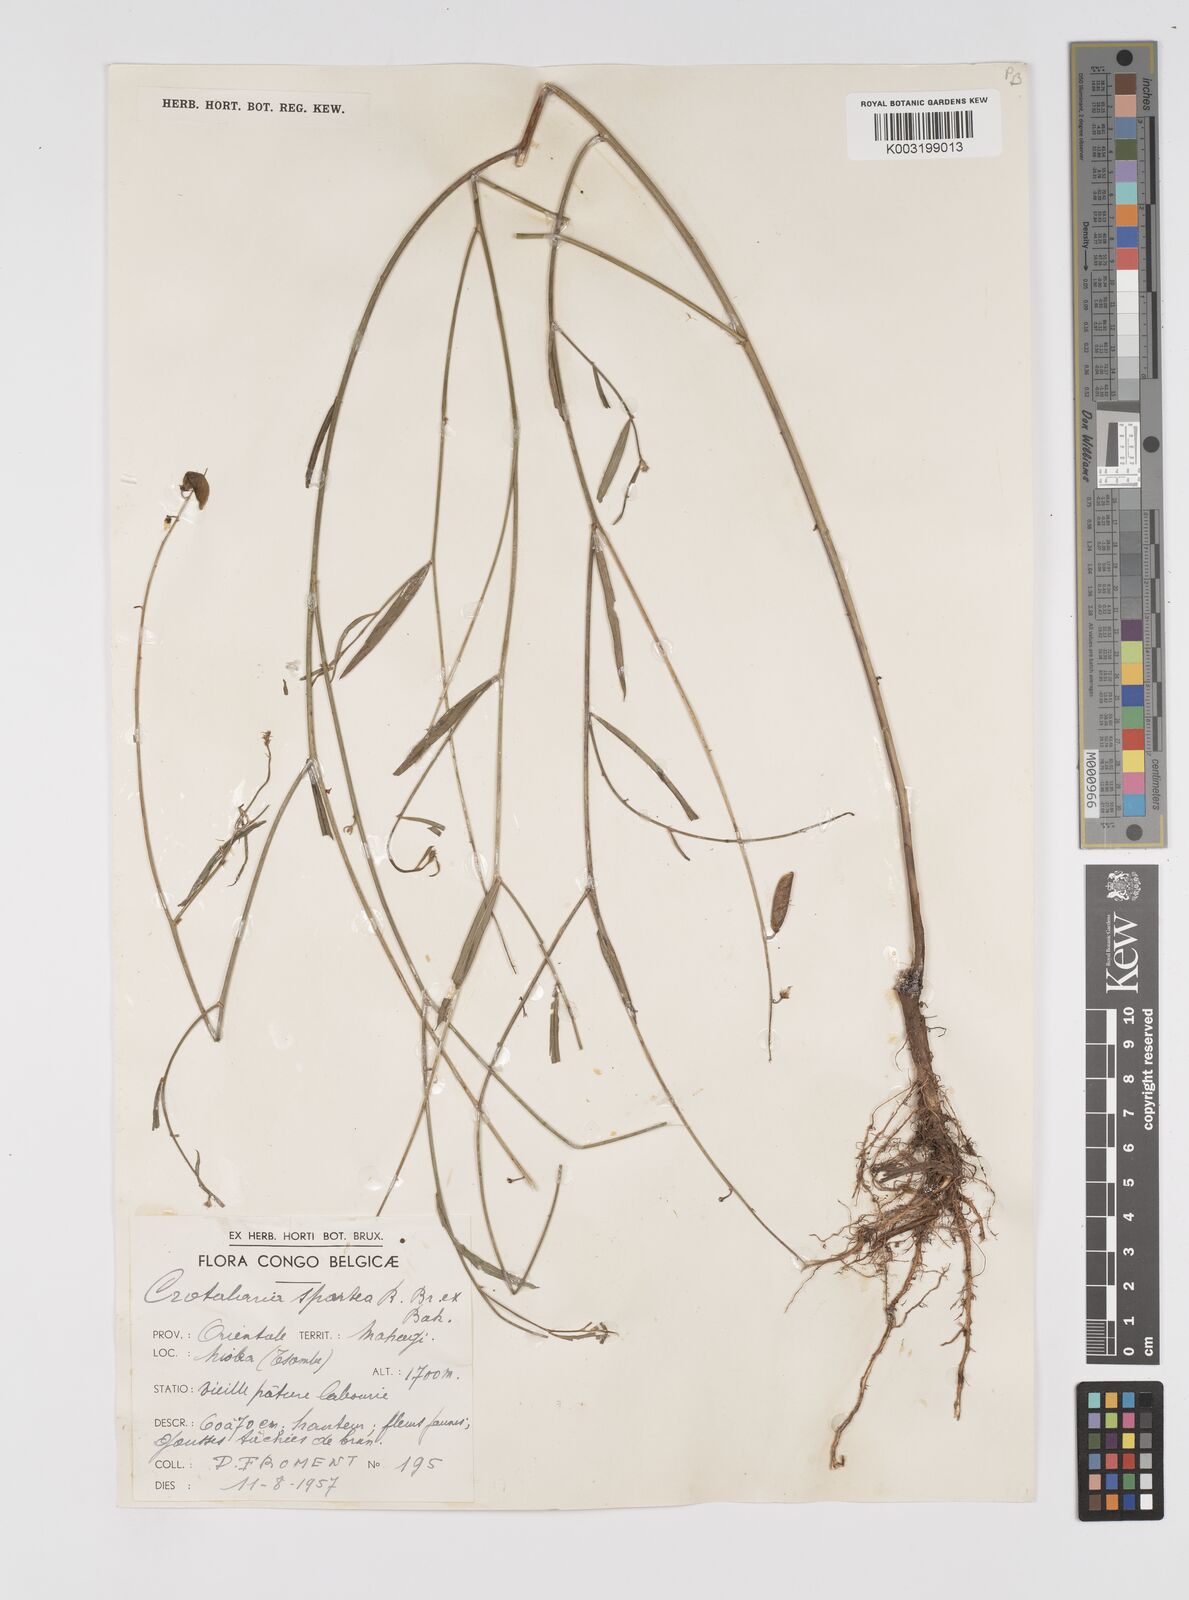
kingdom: Plantae
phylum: Tracheophyta
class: Magnoliopsida
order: Fabales
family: Fabaceae
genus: Crotalaria
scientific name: Crotalaria spartea
